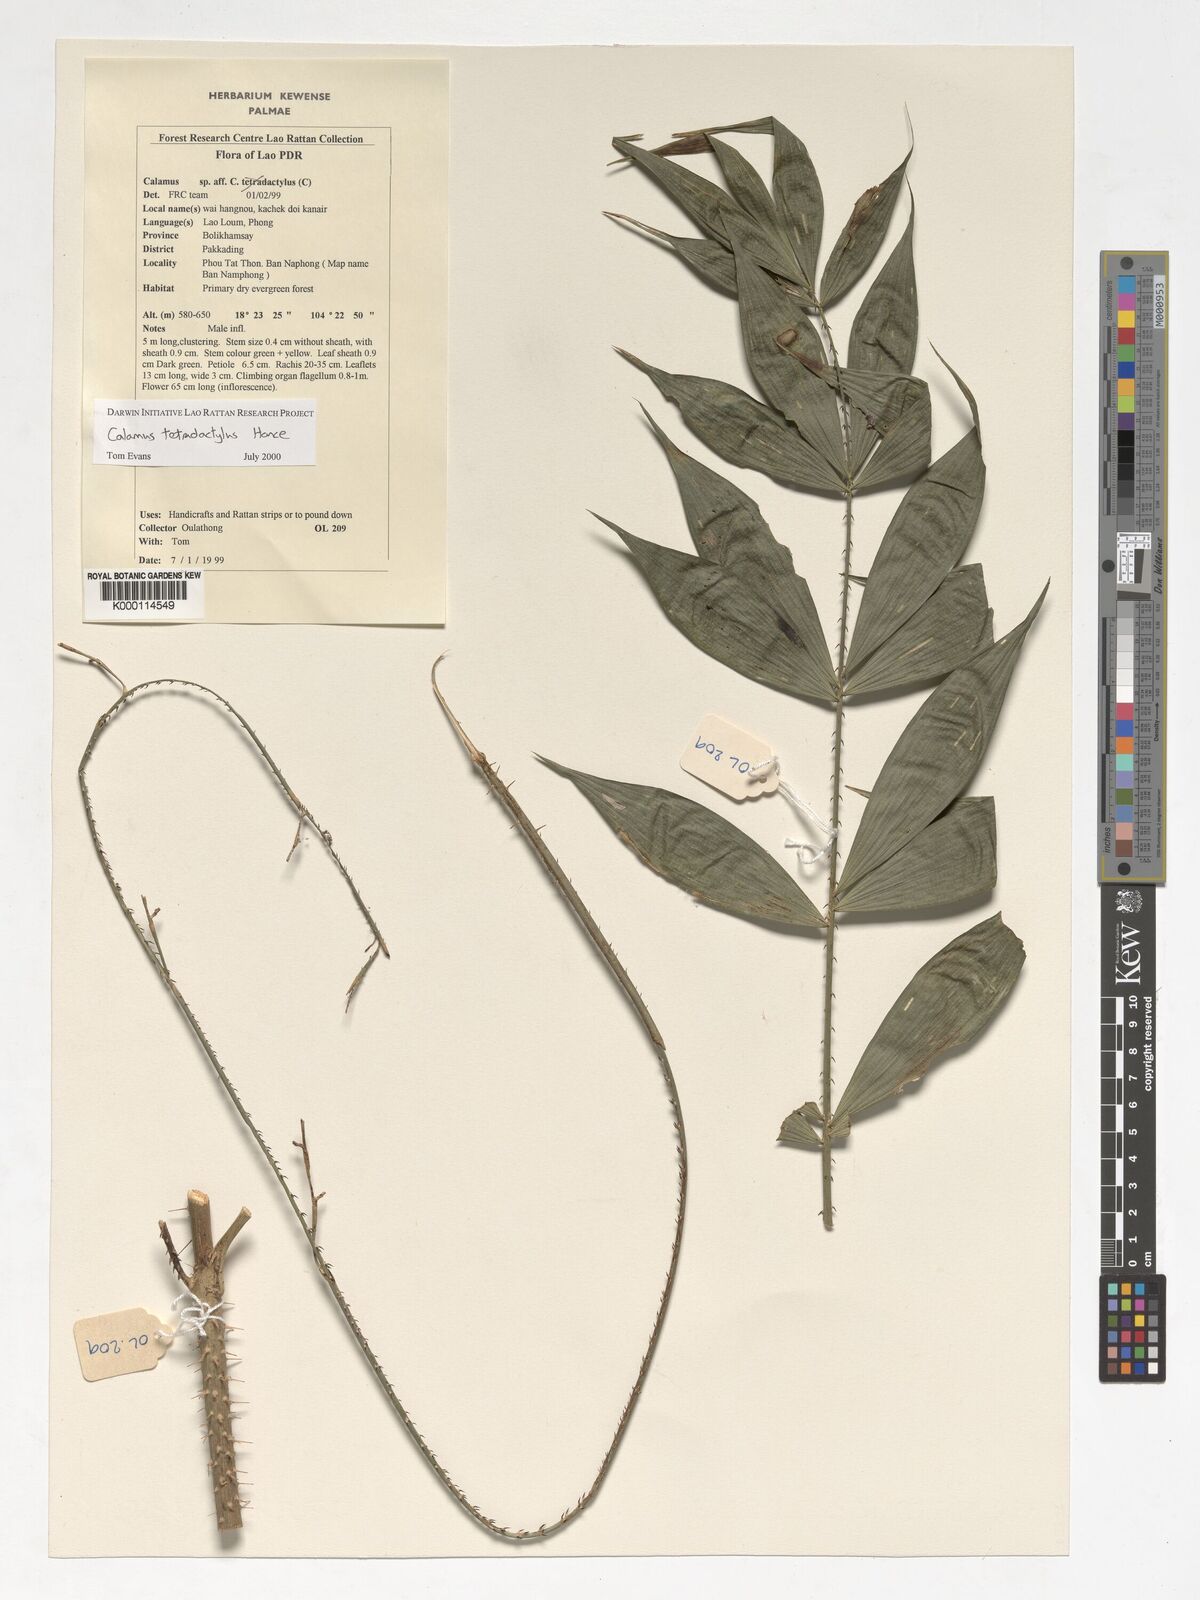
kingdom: Plantae
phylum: Tracheophyta
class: Liliopsida
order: Arecales
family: Arecaceae
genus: Calamus
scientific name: Calamus tetradactylus
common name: White rattan
